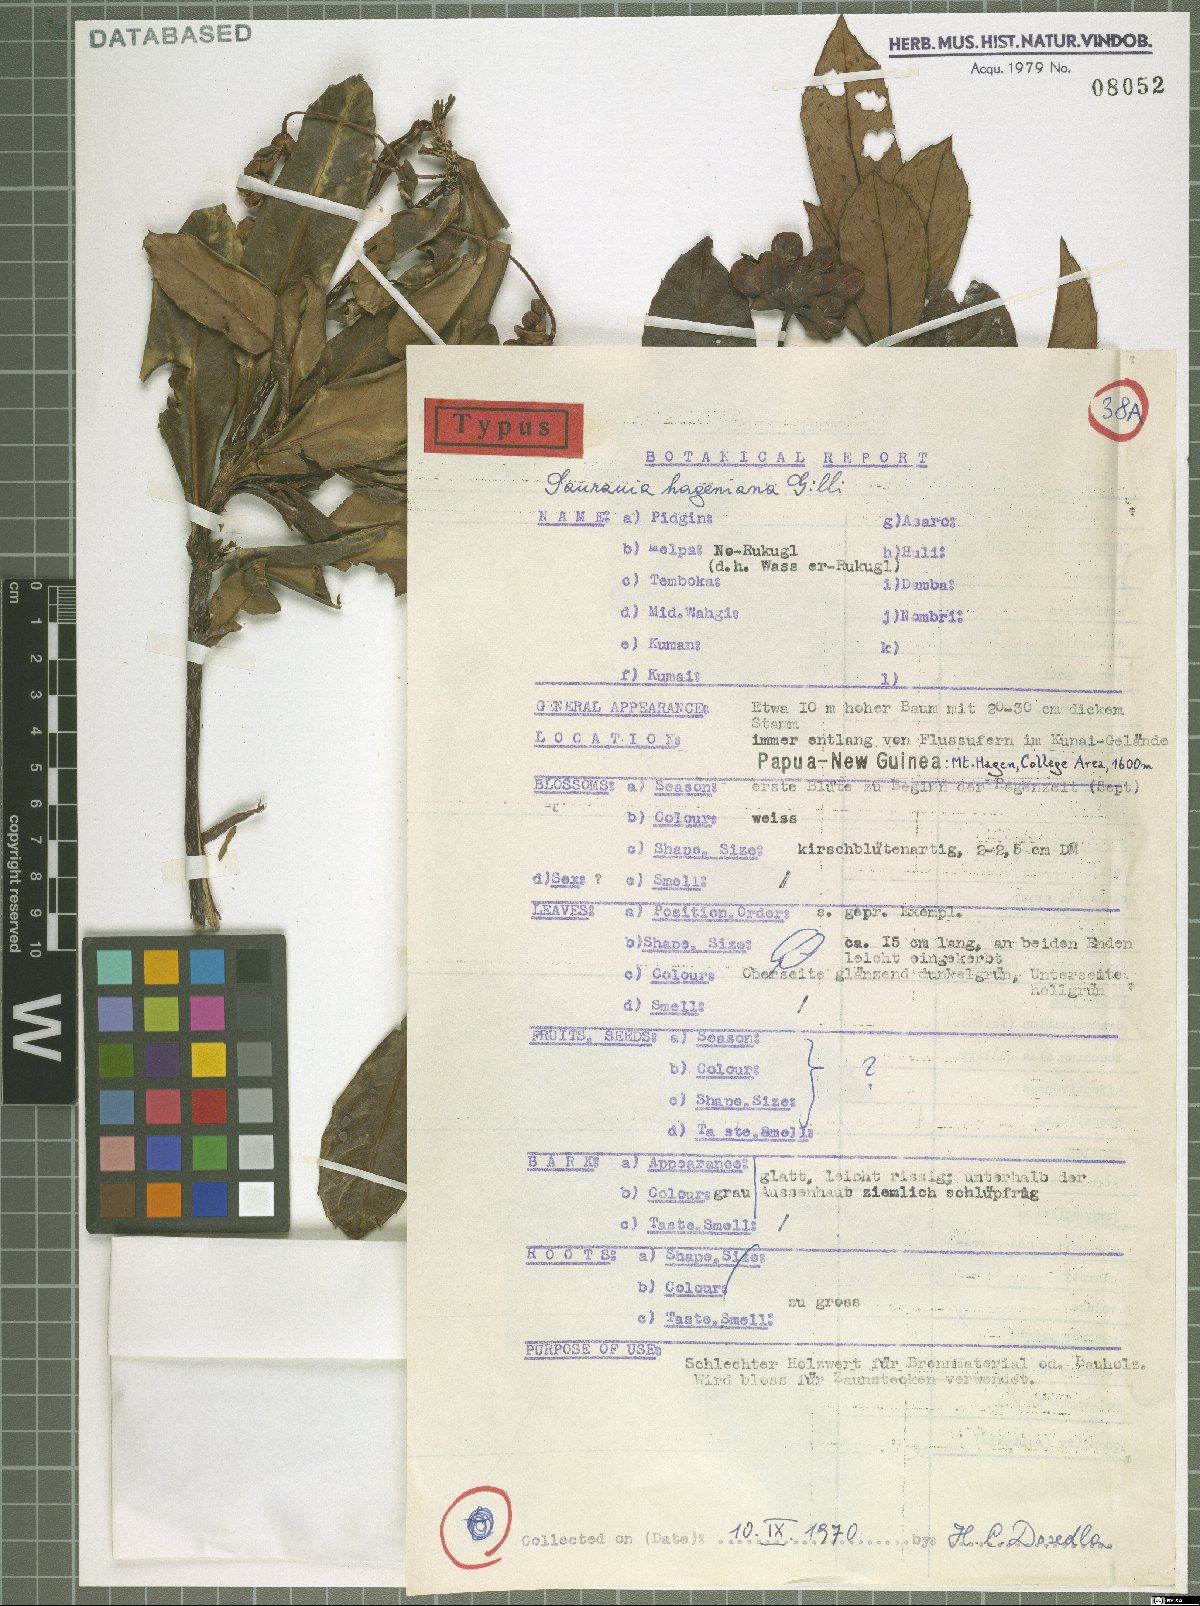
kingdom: Plantae
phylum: Tracheophyta
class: Magnoliopsida
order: Ericales
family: Actinidiaceae
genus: Saurauia
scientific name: Saurauia hageniana
